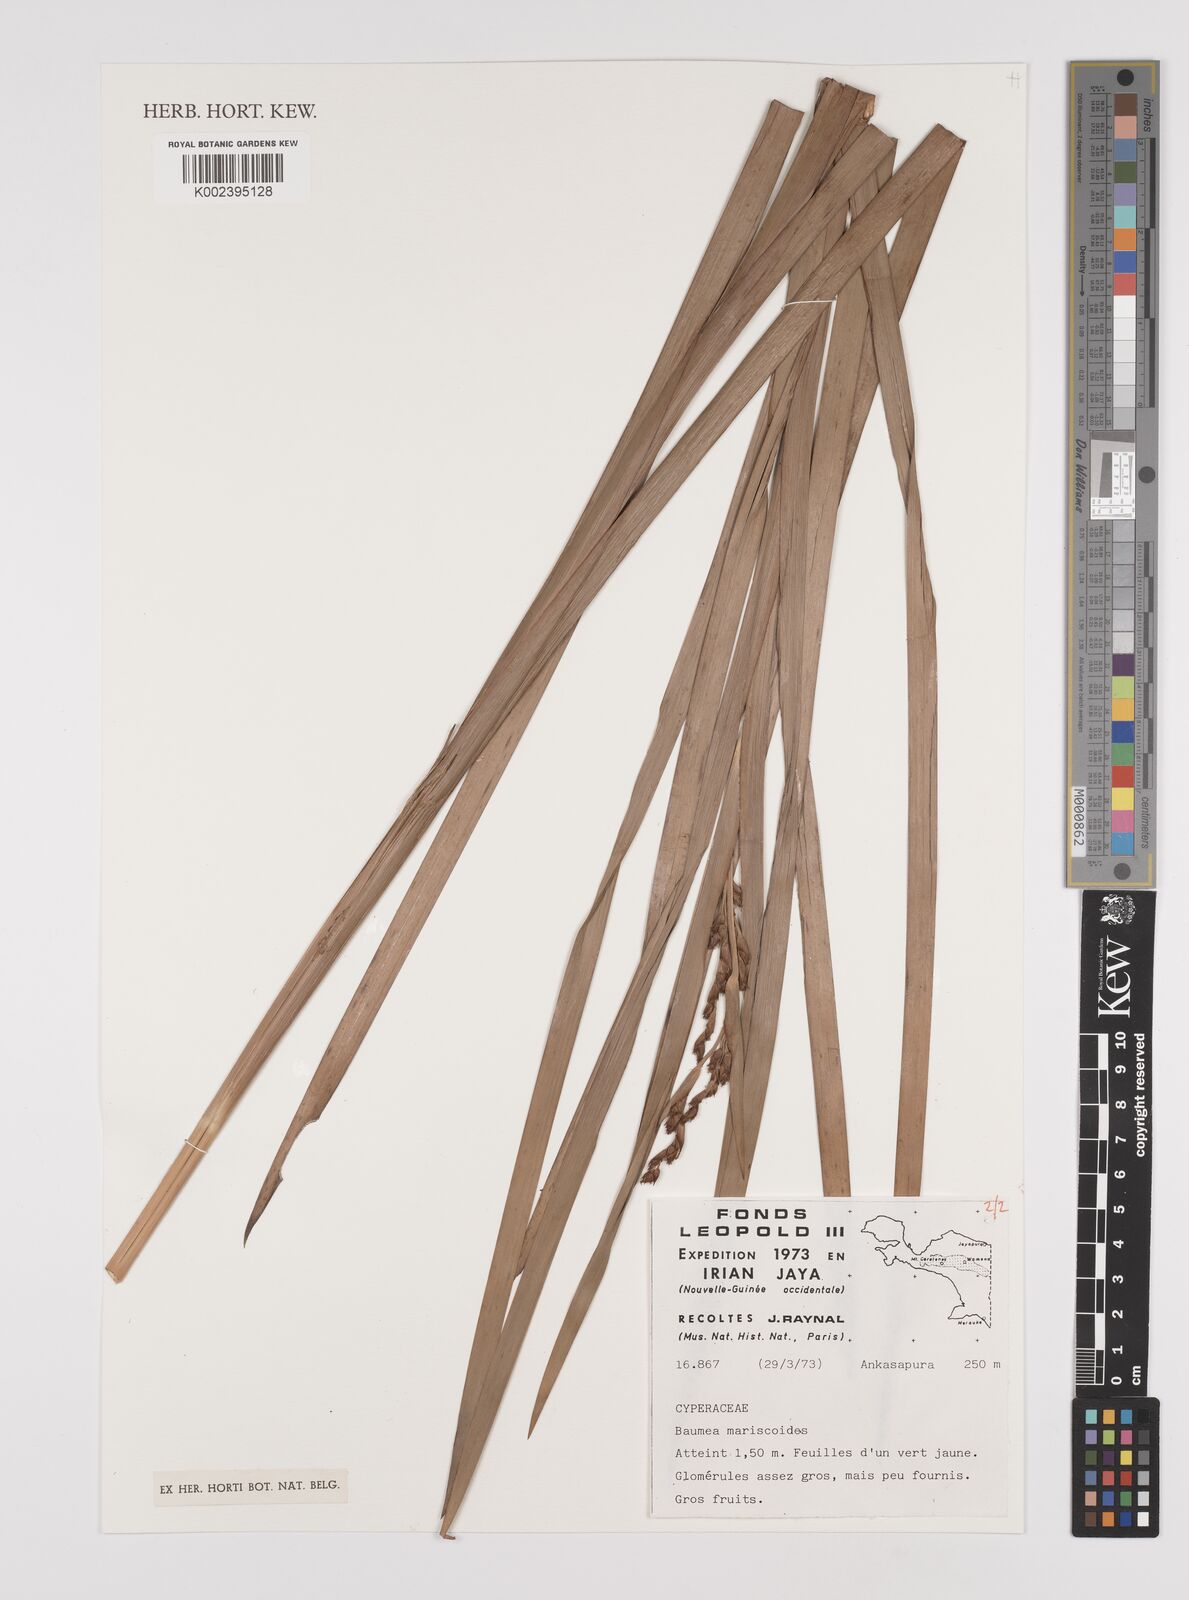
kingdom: Plantae
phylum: Tracheophyta
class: Liliopsida
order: Poales
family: Cyperaceae
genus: Machaerina
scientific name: Machaerina mariscoides
